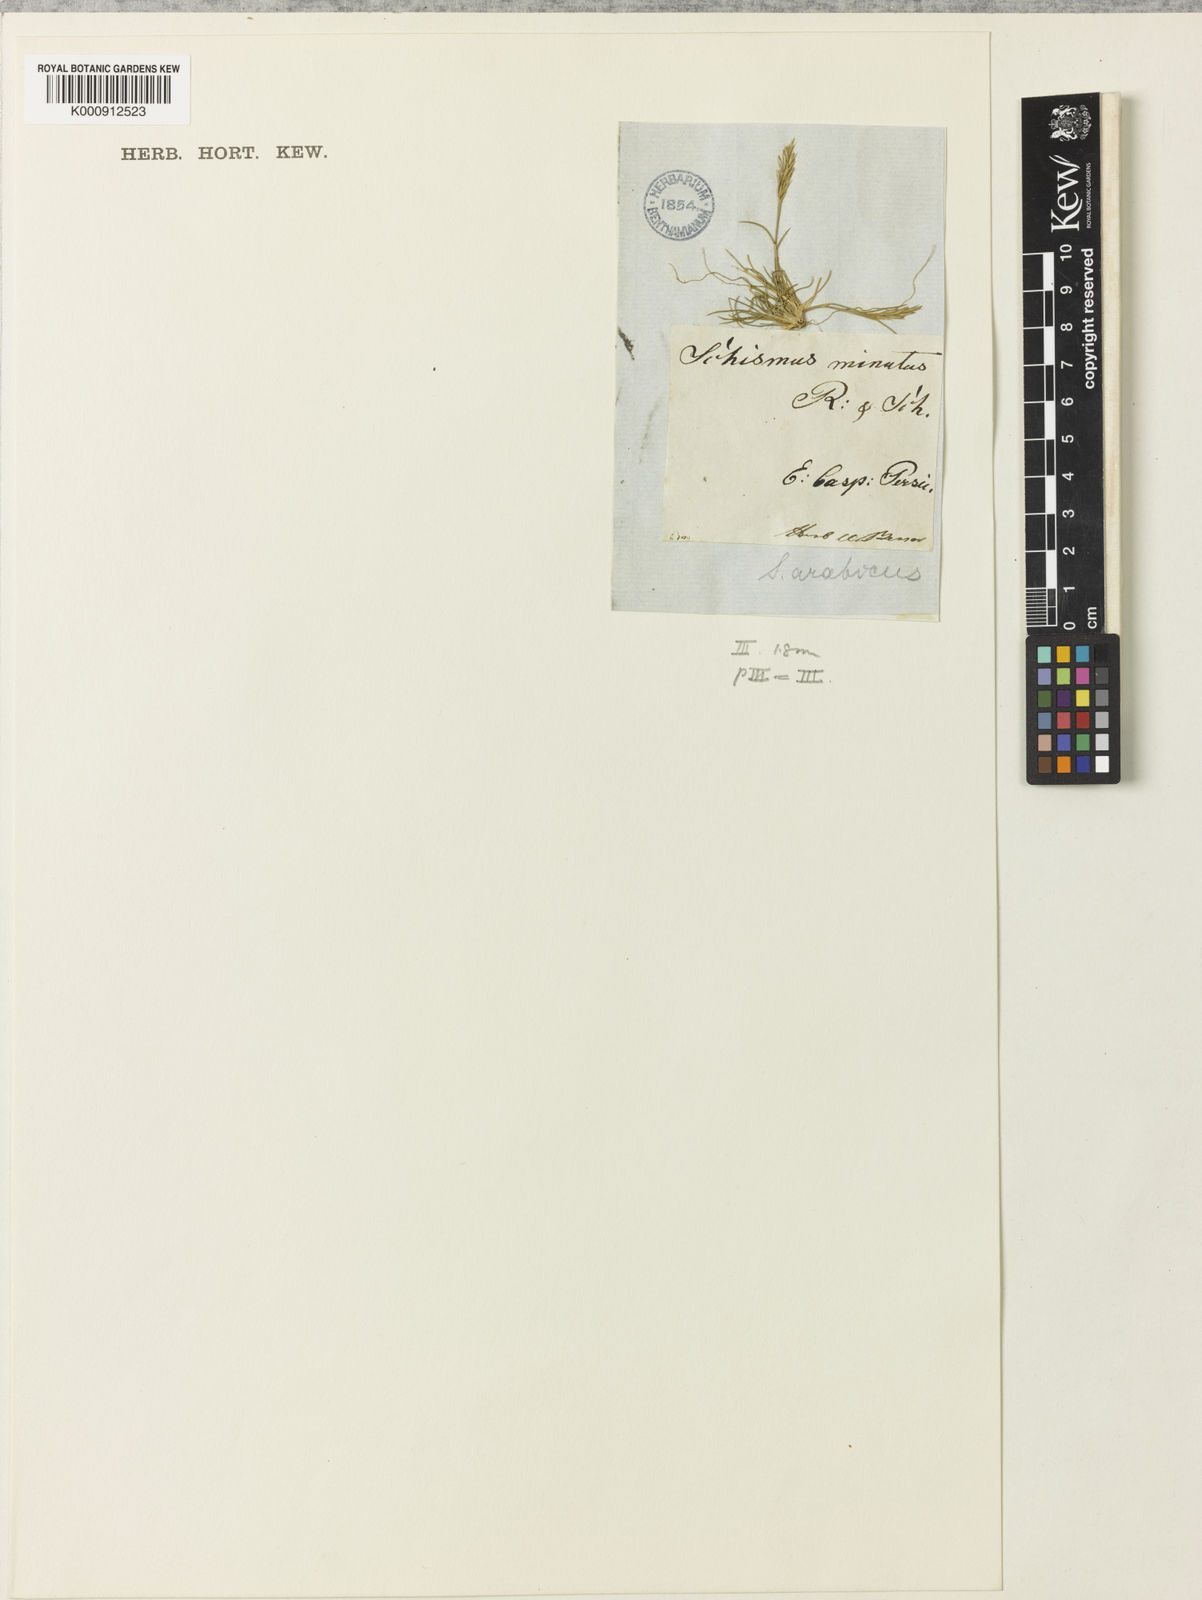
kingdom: Plantae
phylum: Tracheophyta
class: Liliopsida
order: Poales
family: Poaceae
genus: Schismus
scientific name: Schismus barbatus
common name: Kelch-grass
